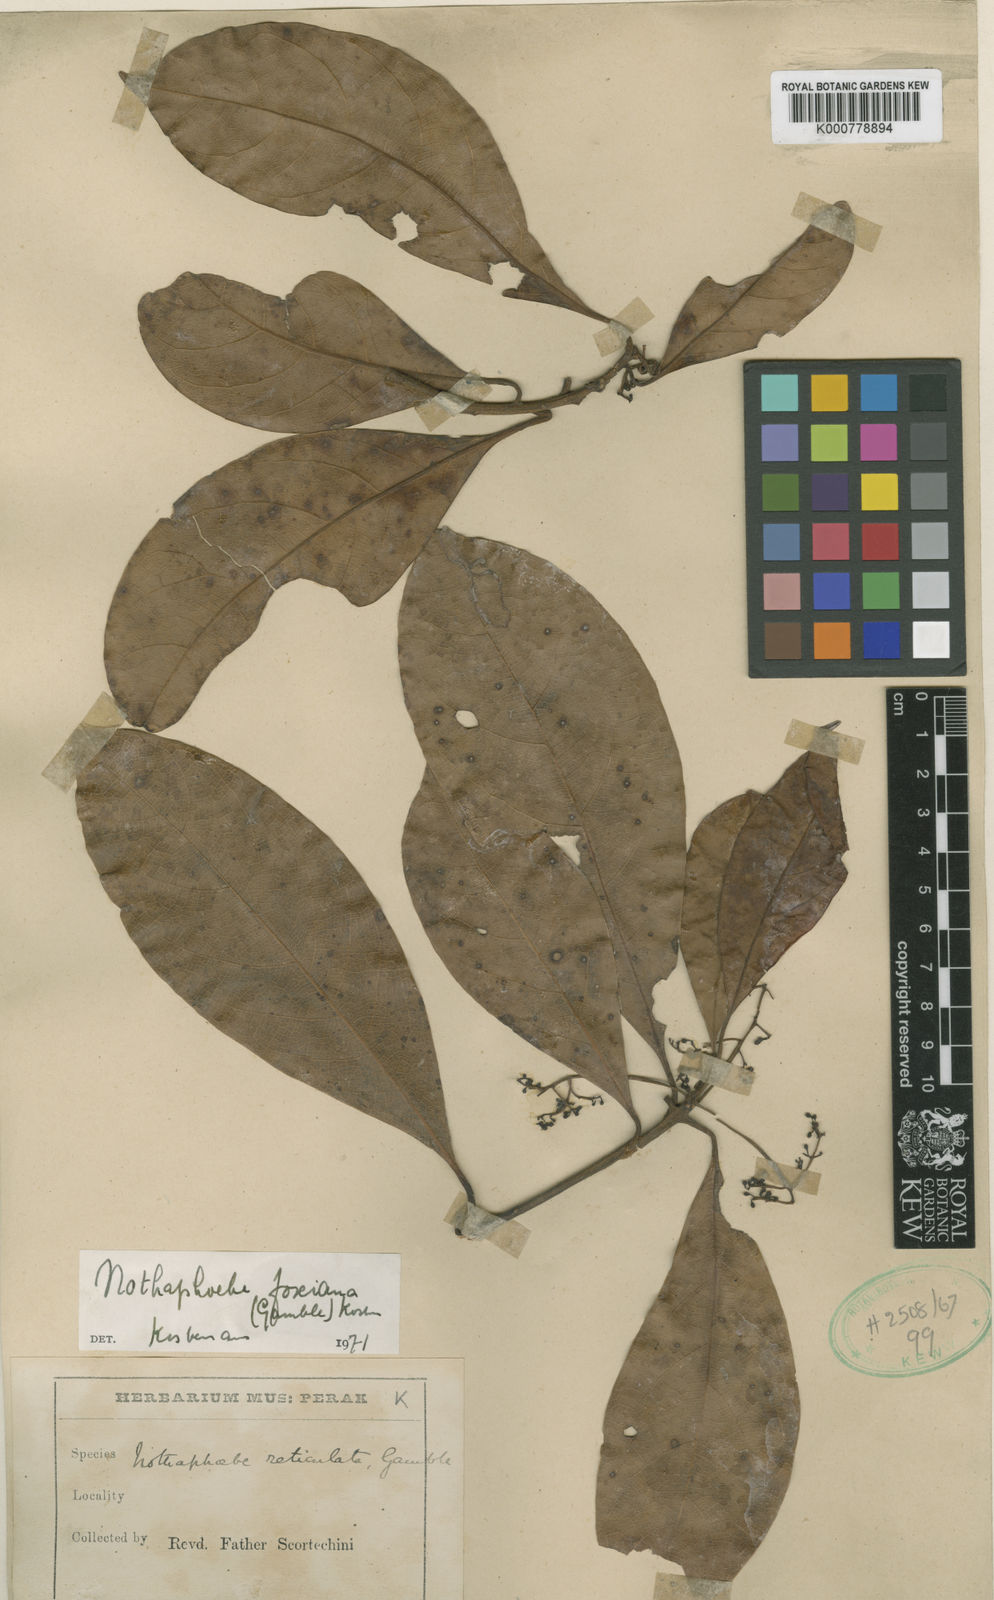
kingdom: Plantae
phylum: Tracheophyta
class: Magnoliopsida
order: Laurales
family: Lauraceae
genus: Nothaphoebe
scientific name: Nothaphoebe
